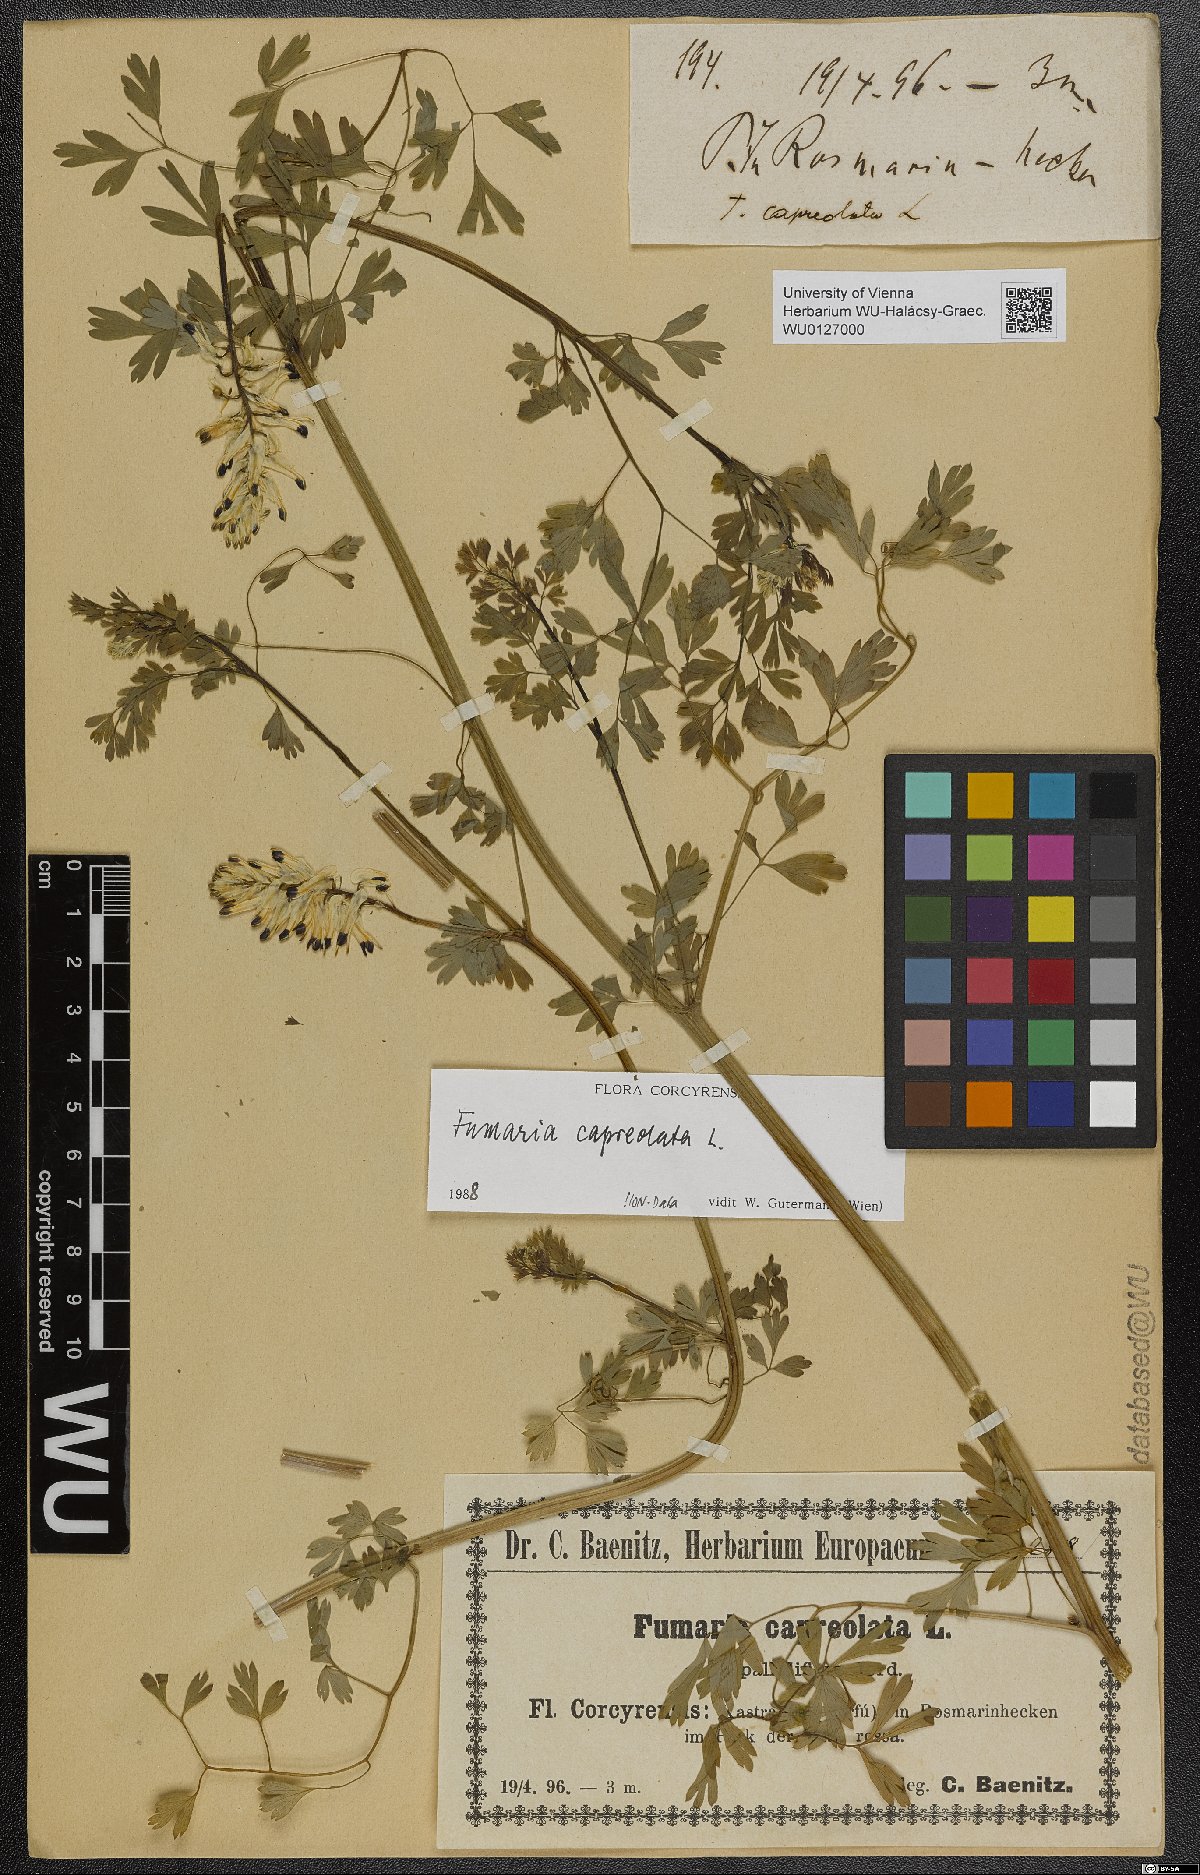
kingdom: Plantae
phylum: Tracheophyta
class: Magnoliopsida
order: Ranunculales
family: Papaveraceae
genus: Fumaria
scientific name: Fumaria capreolata
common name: White ramping-fumitory
